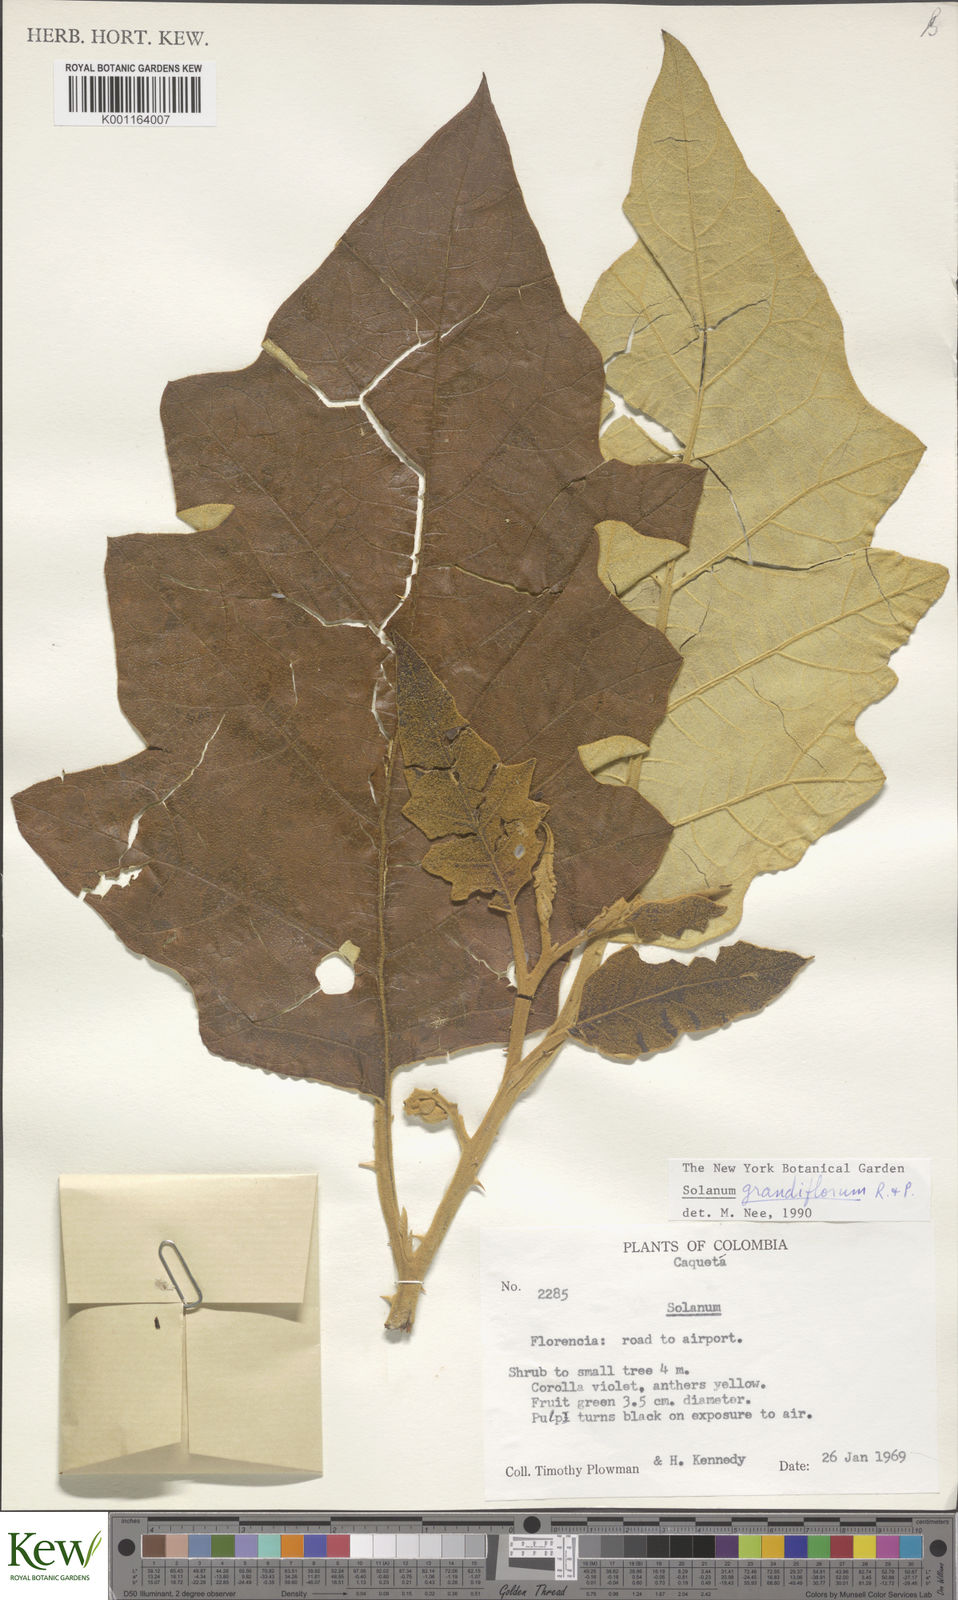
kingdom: Plantae
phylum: Tracheophyta
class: Magnoliopsida
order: Solanales
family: Solanaceae
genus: Solanum
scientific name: Solanum grandiflorum
